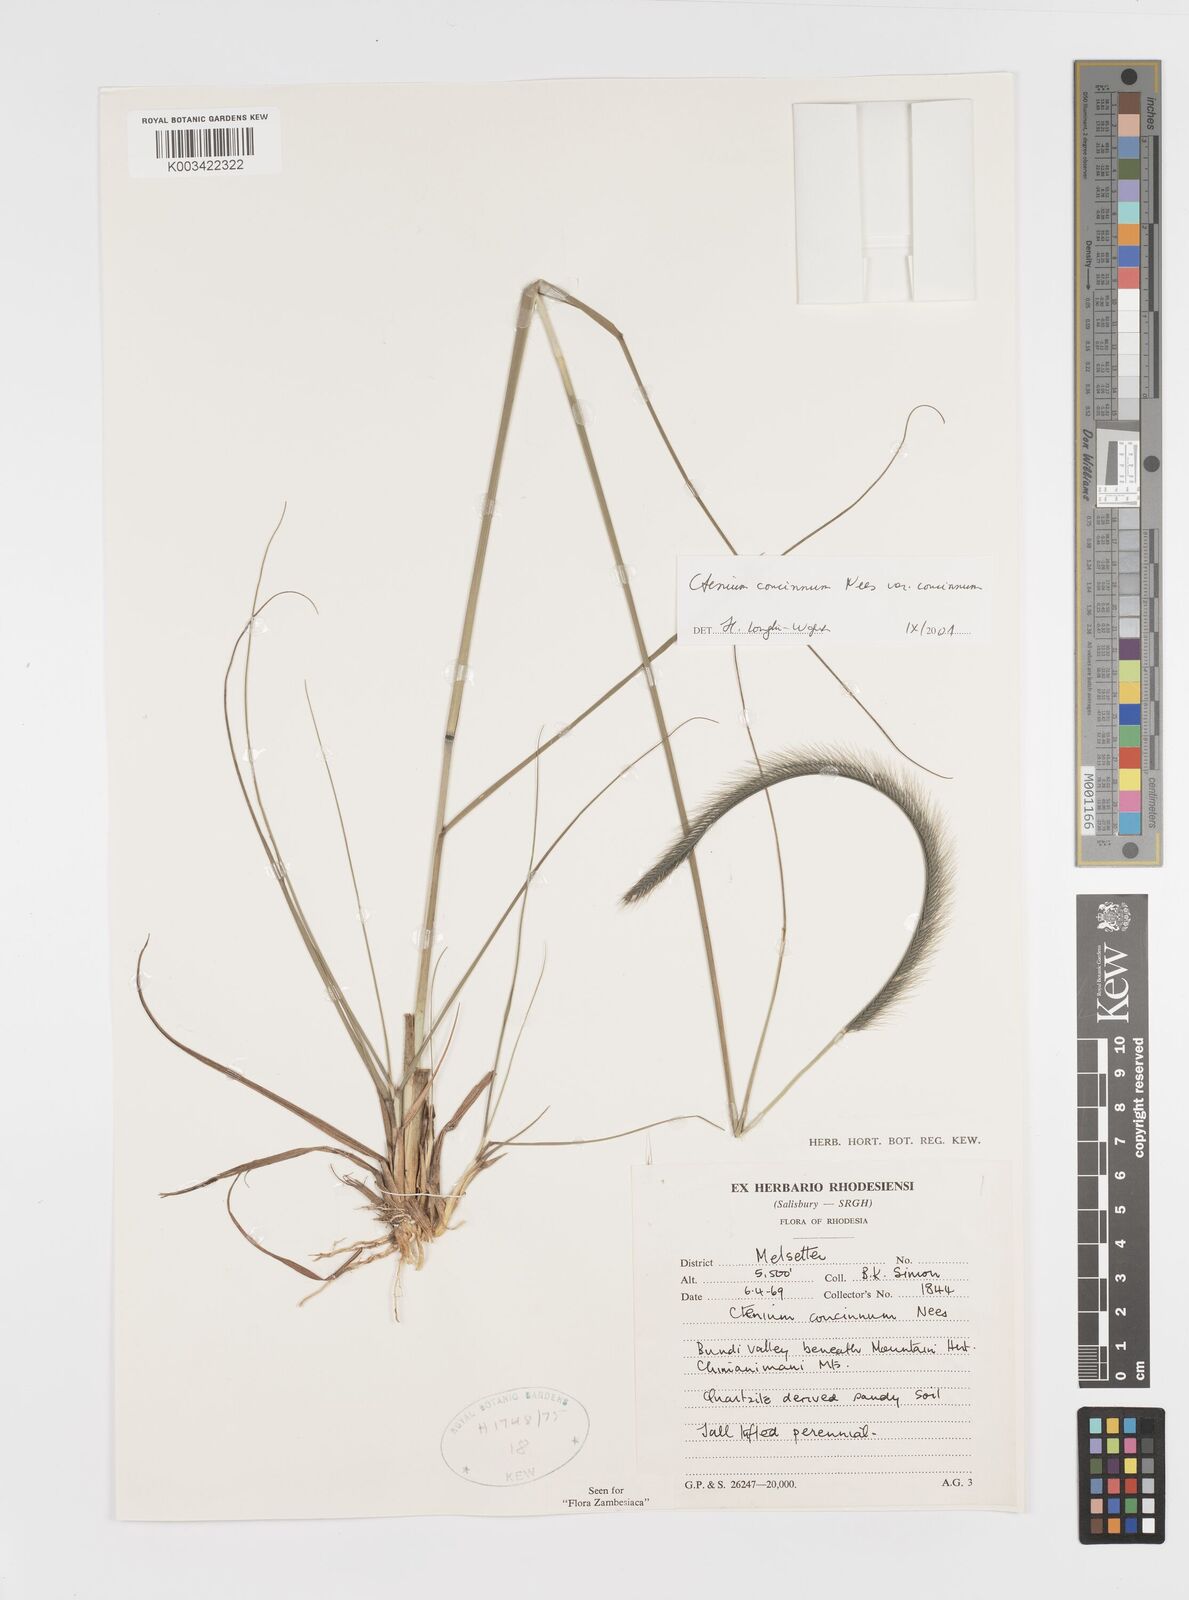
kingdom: Plantae
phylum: Tracheophyta
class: Liliopsida
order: Poales
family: Poaceae
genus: Ctenium
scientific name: Ctenium concinnum
